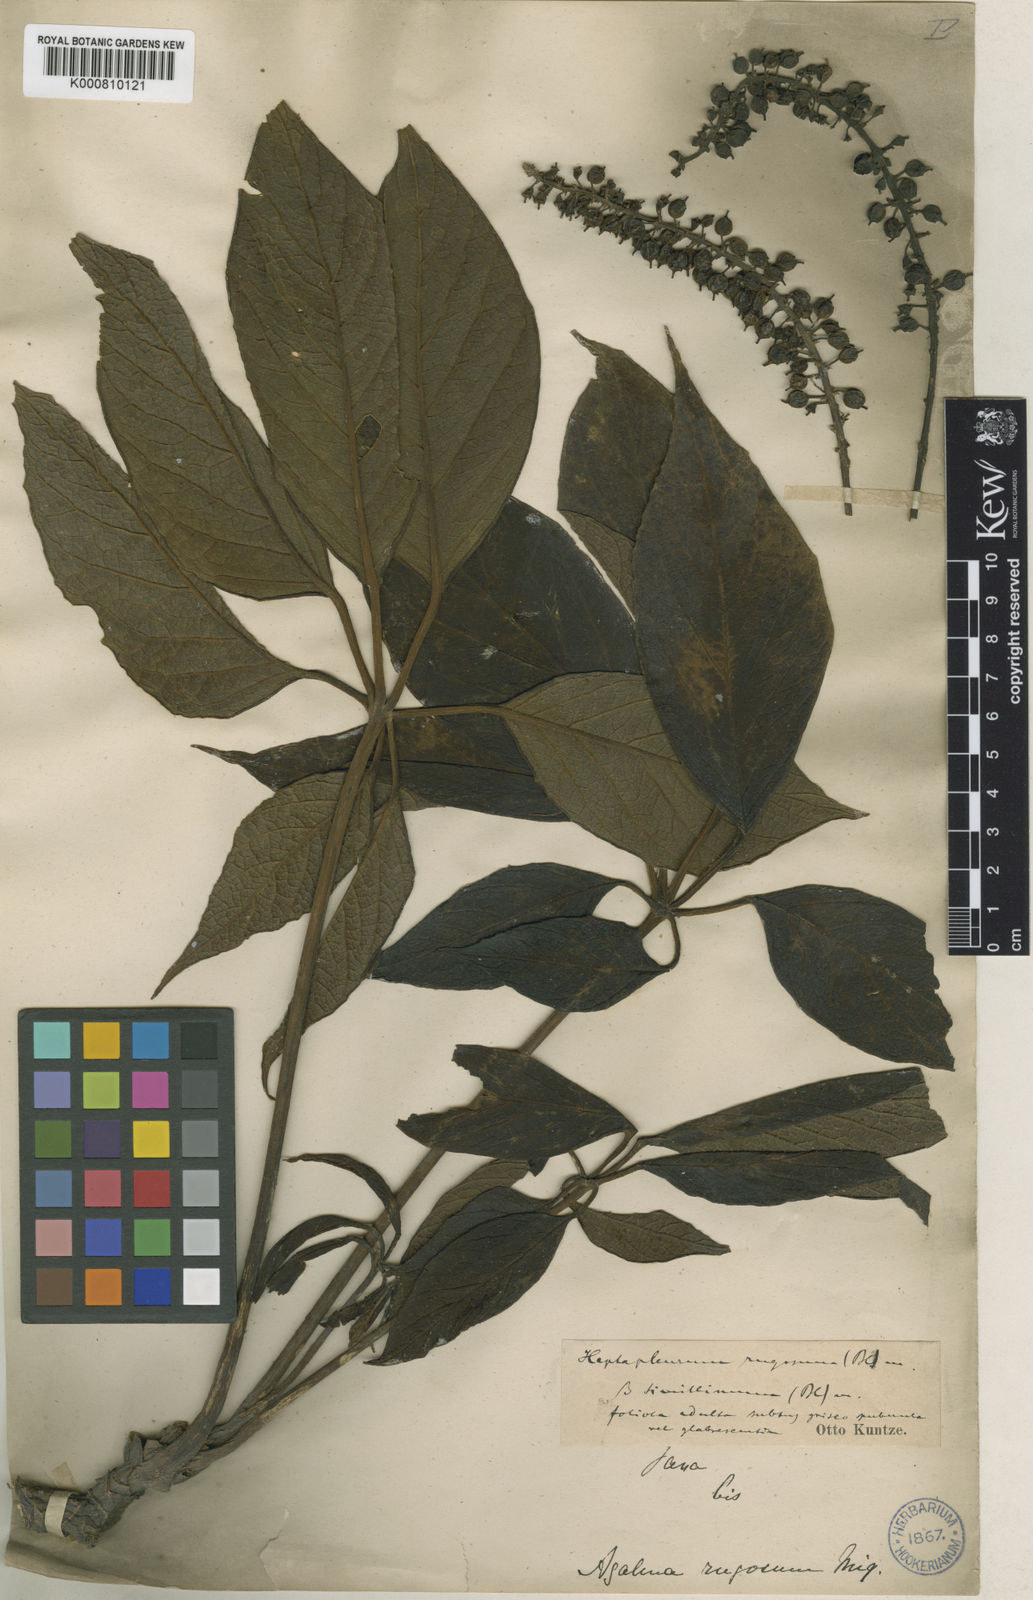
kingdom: Plantae
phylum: Tracheophyta
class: Magnoliopsida
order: Apiales
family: Araliaceae
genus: Heptapleurum
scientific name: Heptapleurum rugosum
